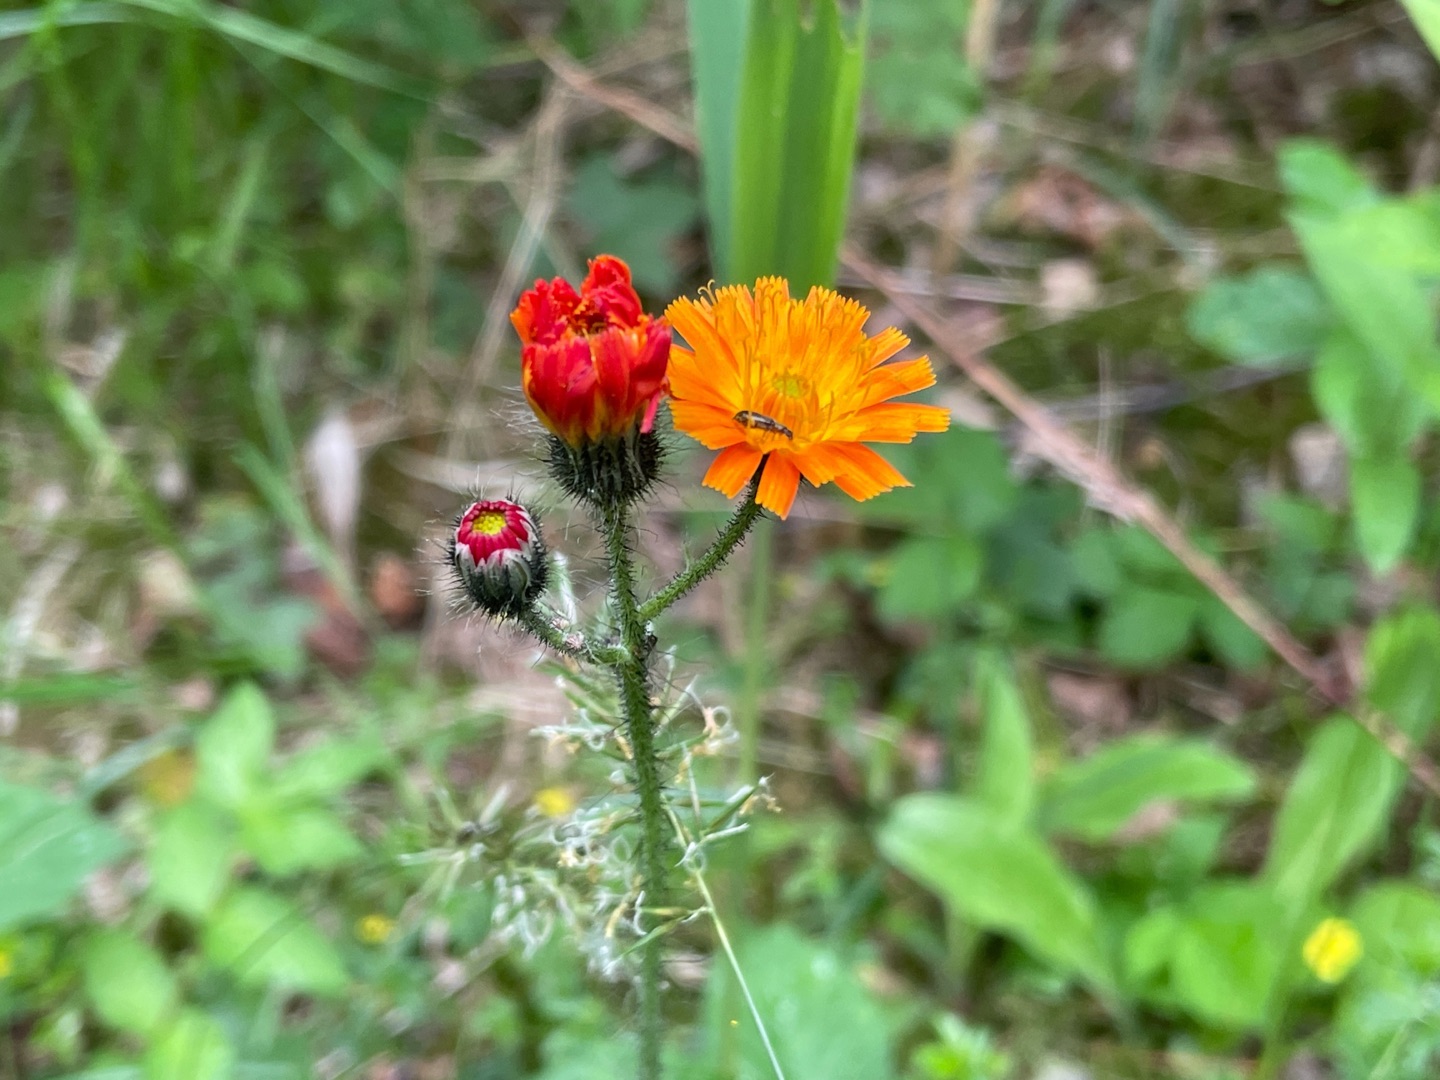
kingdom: Plantae
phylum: Tracheophyta
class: Magnoliopsida
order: Asterales
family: Asteraceae
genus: Pilosella
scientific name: Pilosella aurantiaca
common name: Pomerans-høgeurt
